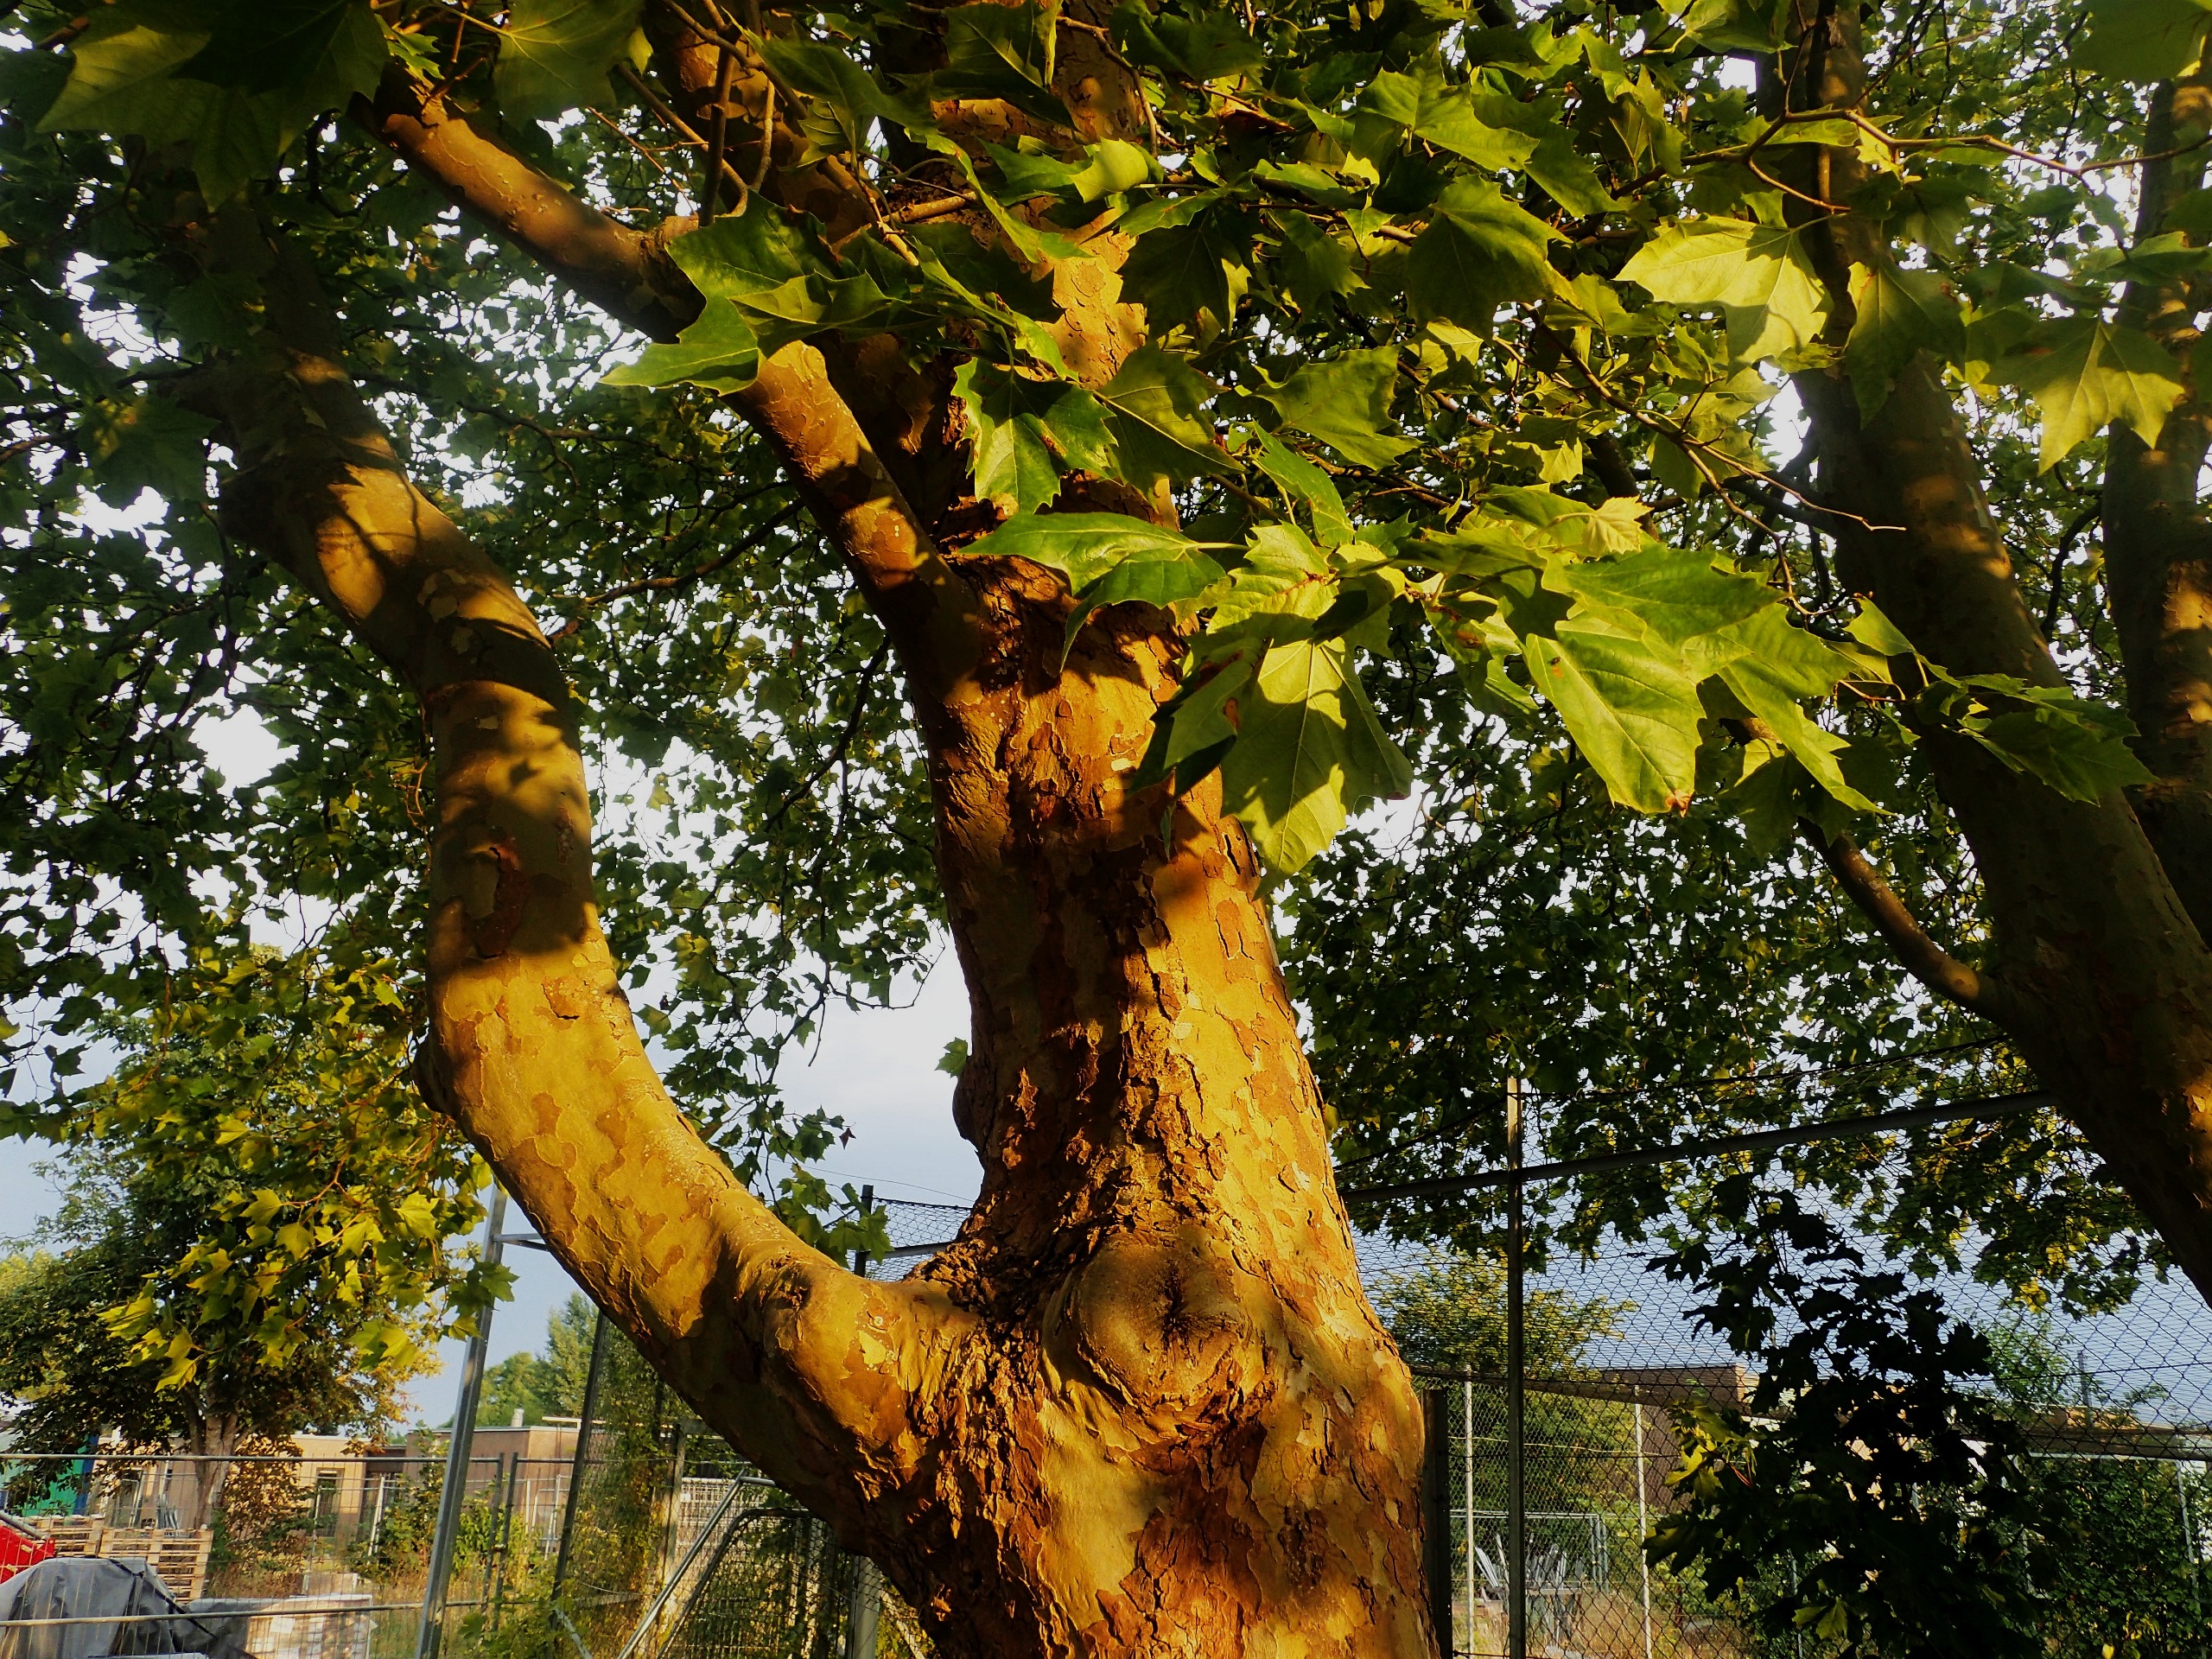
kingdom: Plantae
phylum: Tracheophyta
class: Magnoliopsida
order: Proteales
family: Platanaceae
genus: Platanus
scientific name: Platanus hispanica
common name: Almindelig platan
